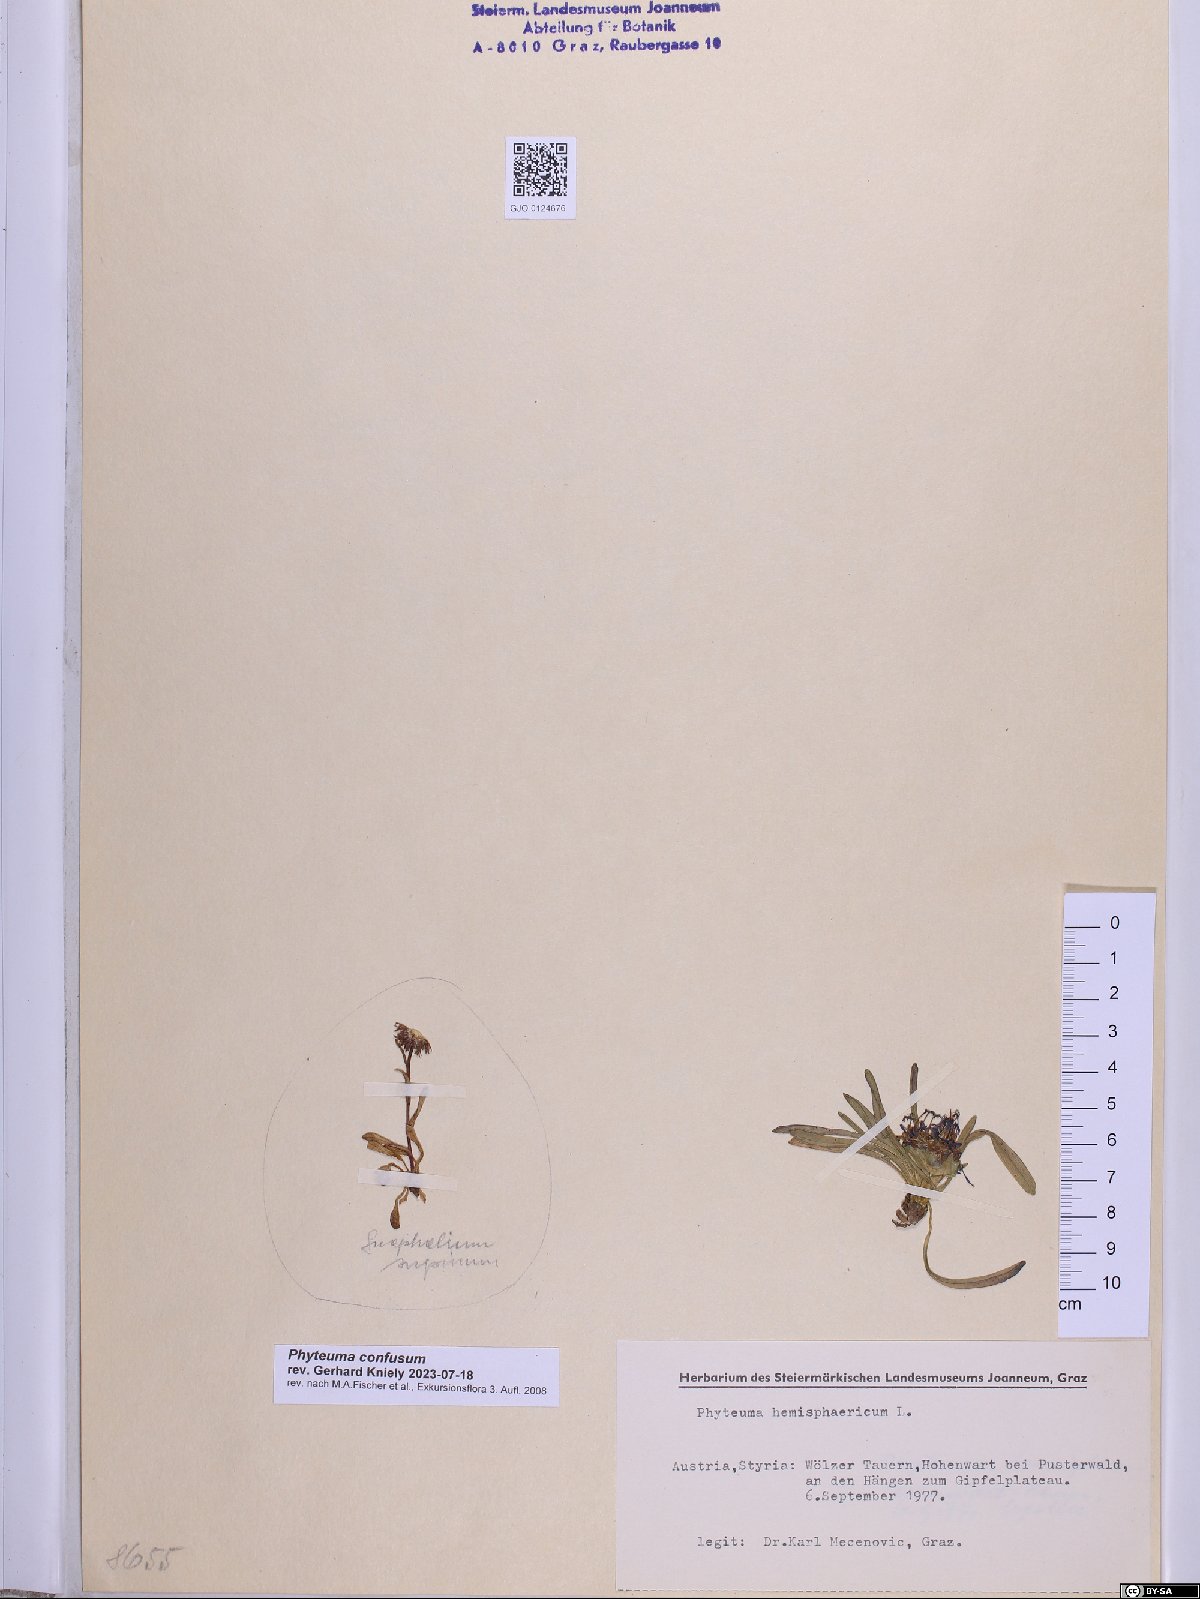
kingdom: Plantae
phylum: Tracheophyta
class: Magnoliopsida
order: Asterales
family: Campanulaceae
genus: Phyteuma
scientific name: Phyteuma confusum
